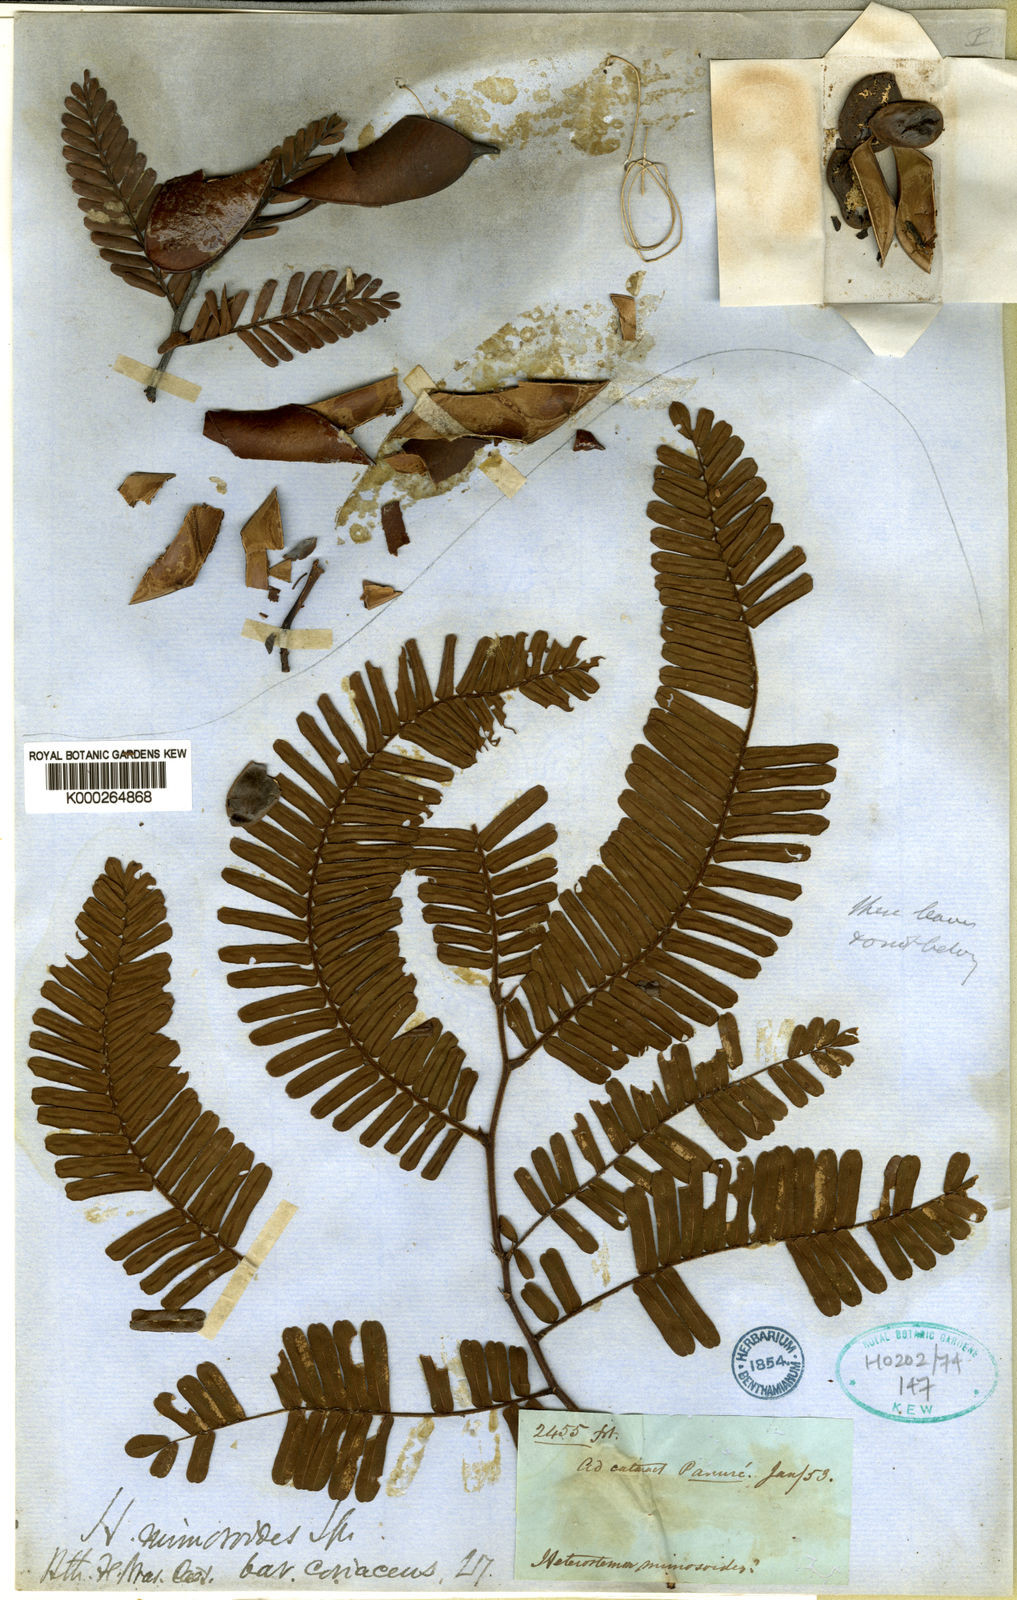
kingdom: Plantae
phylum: Tracheophyta
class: Magnoliopsida
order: Fabales
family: Fabaceae
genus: Heterostemon
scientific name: Heterostemon mimosoides
